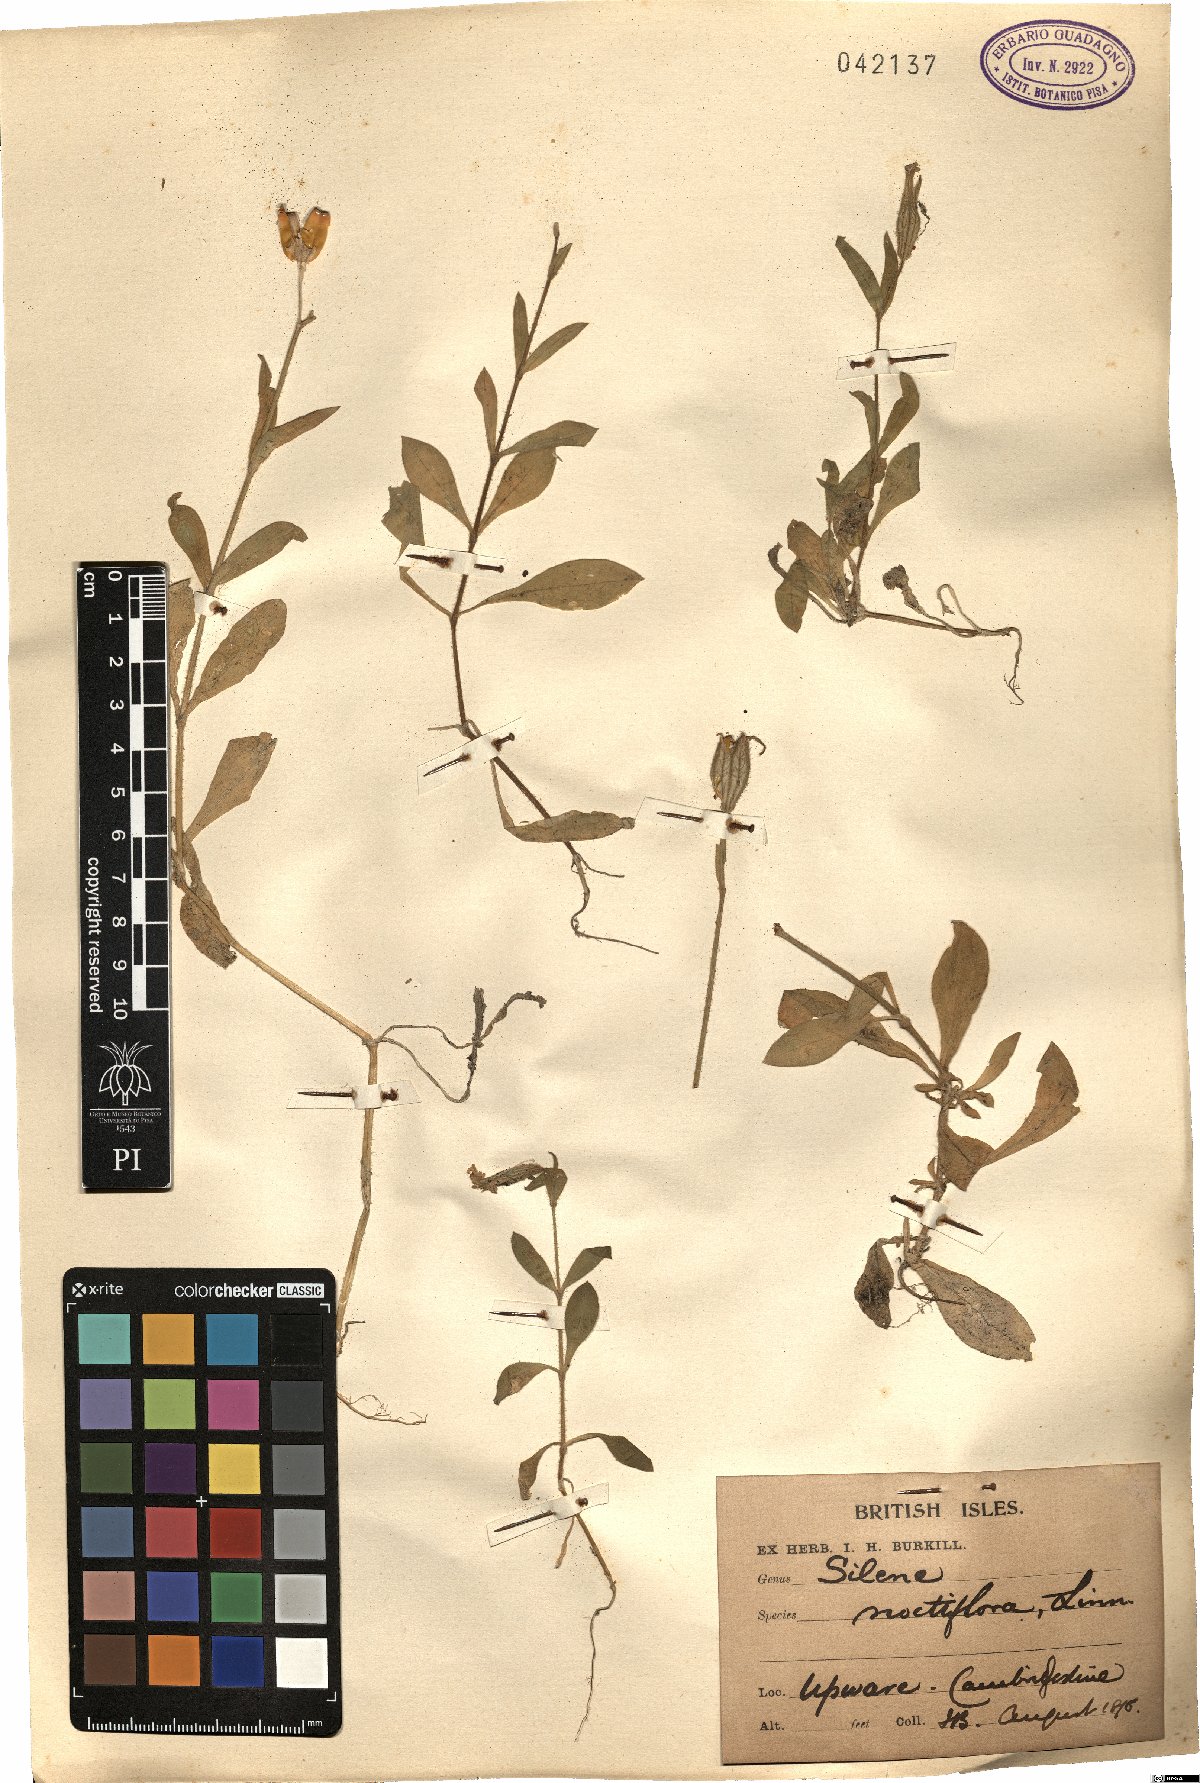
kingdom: Plantae
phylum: Tracheophyta
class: Magnoliopsida
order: Caryophyllales
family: Caryophyllaceae
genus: Silene
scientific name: Silene noctiflora
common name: Night-flowering catchfly
